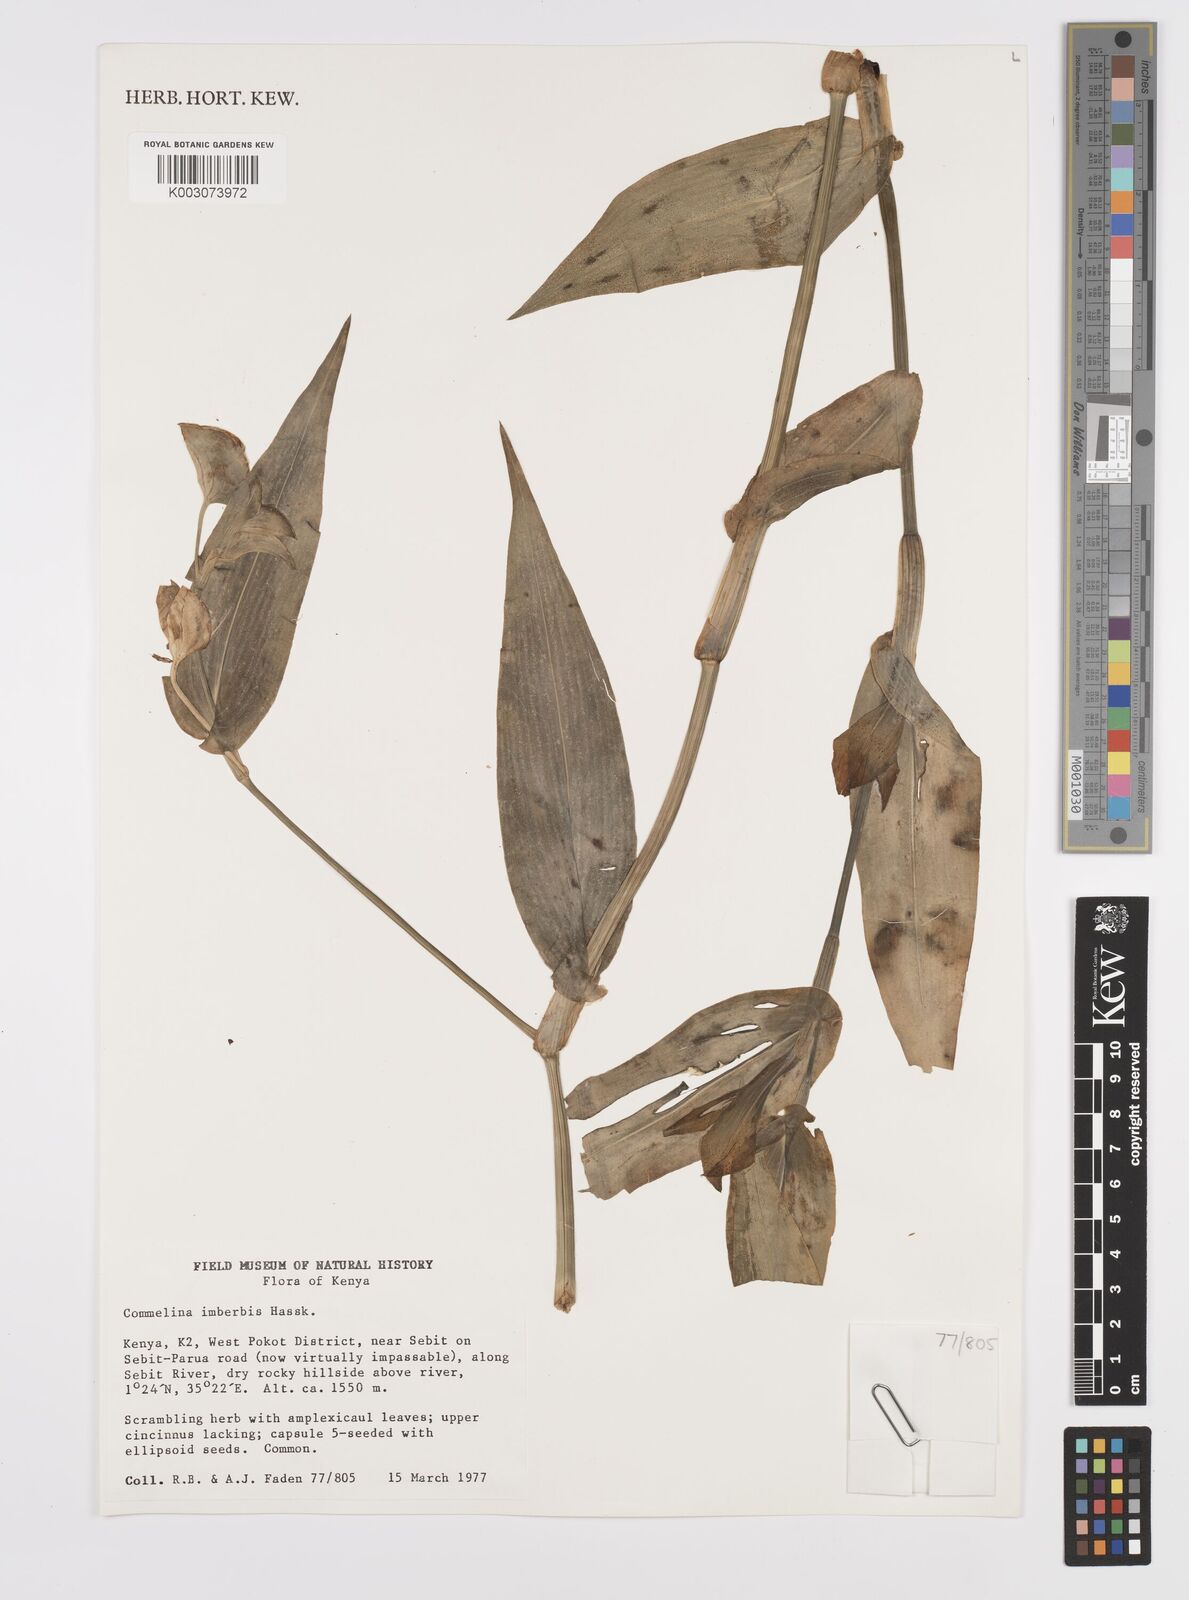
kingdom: Plantae
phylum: Tracheophyta
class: Liliopsida
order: Commelinales
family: Commelinaceae
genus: Commelina
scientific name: Commelina imberbis
